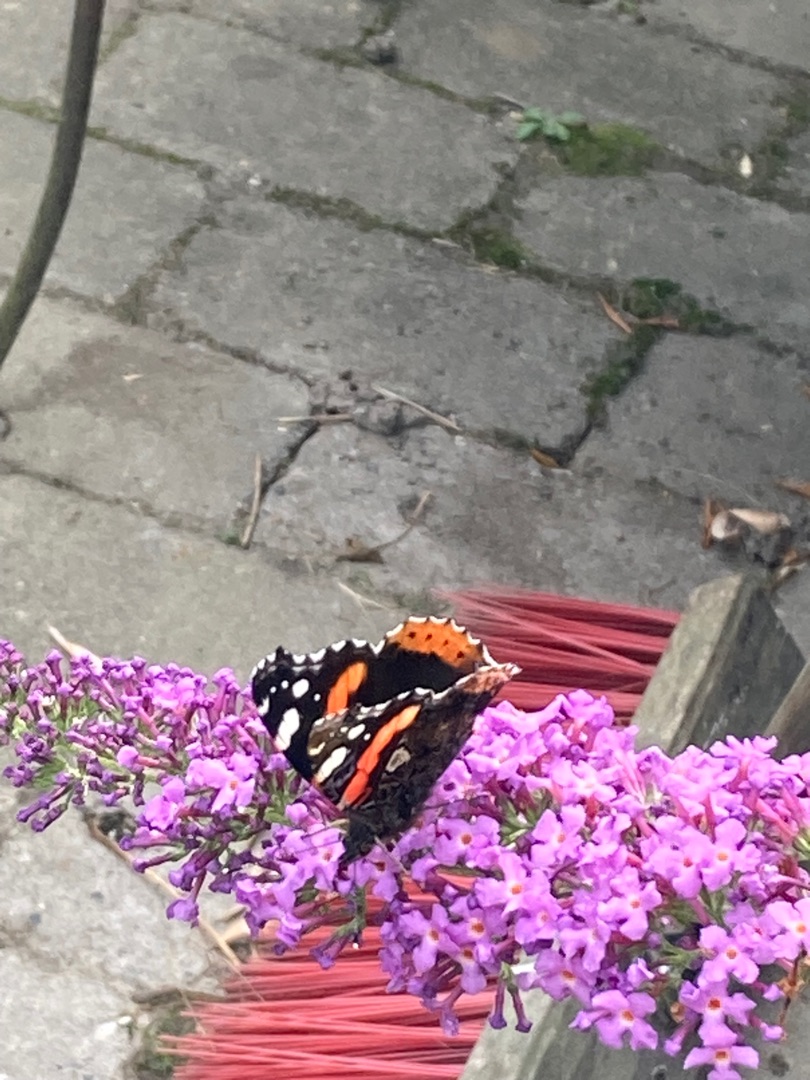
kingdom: Animalia
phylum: Arthropoda
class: Insecta
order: Lepidoptera
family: Nymphalidae
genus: Vanessa
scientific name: Vanessa atalanta
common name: Admiral
